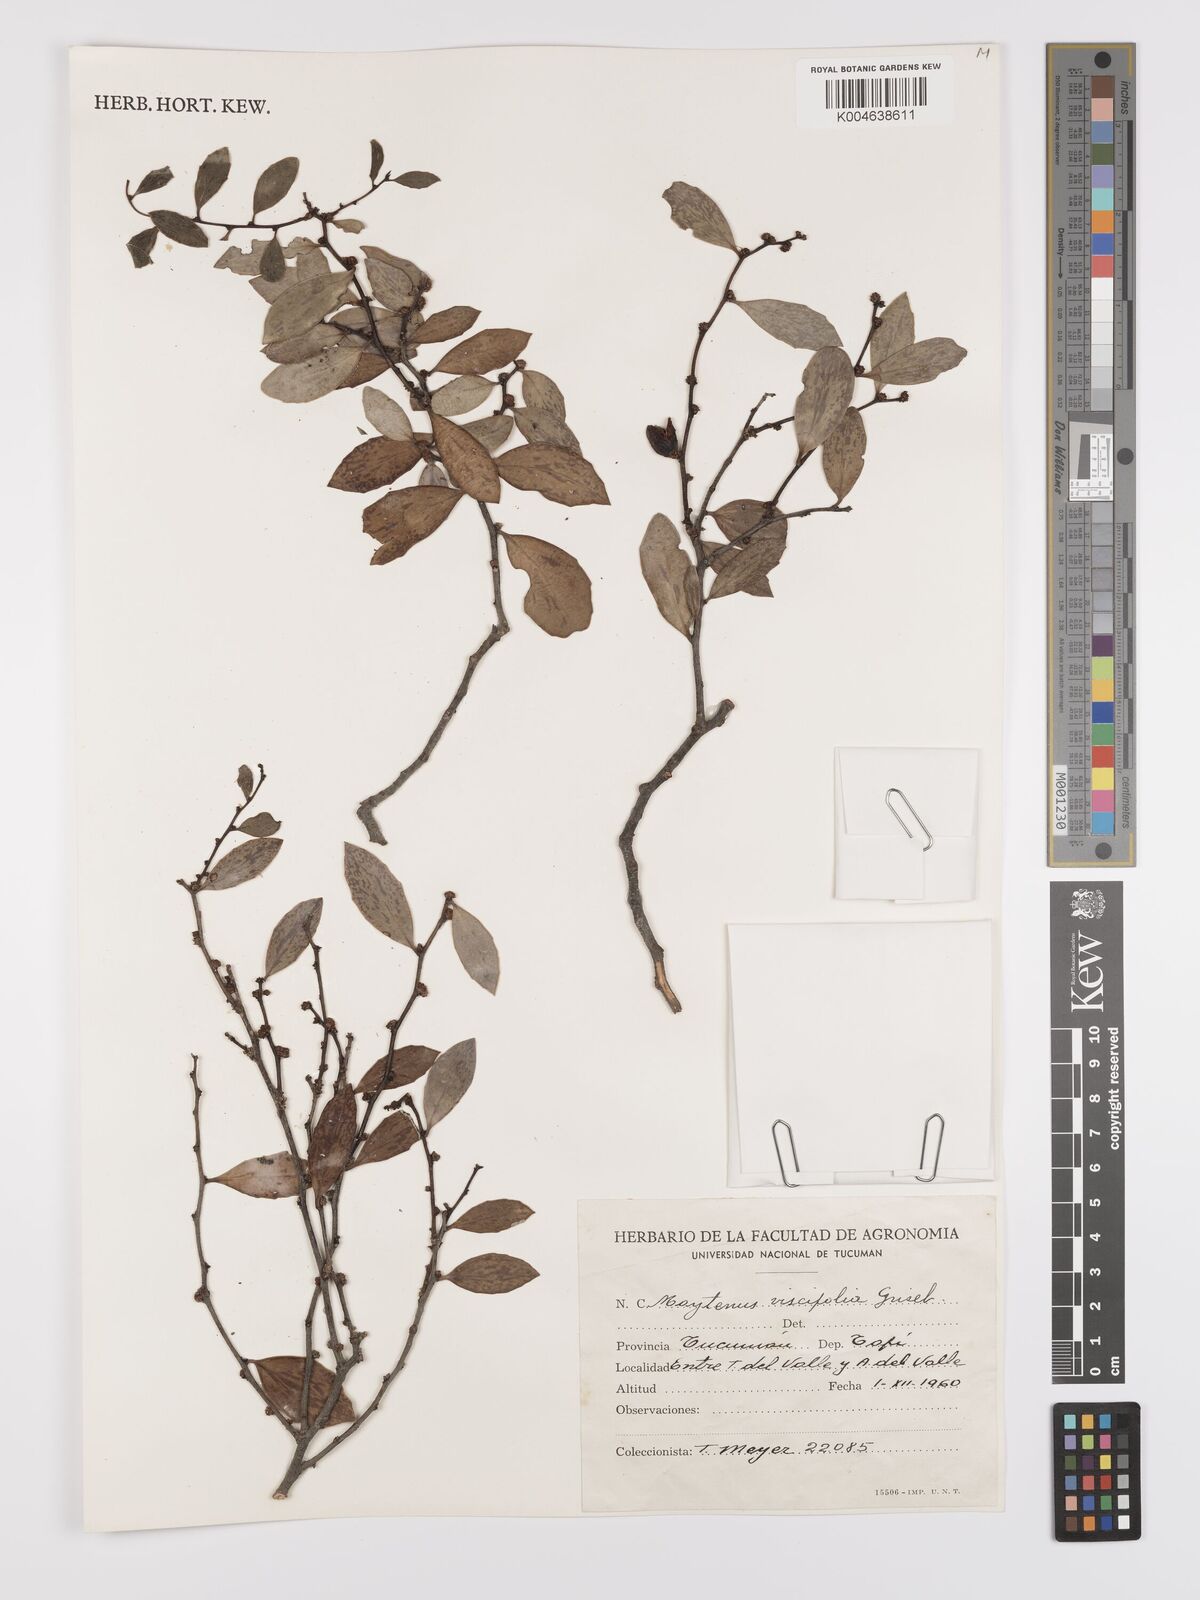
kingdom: Plantae
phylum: Tracheophyta
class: Magnoliopsida
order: Celastrales
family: Celastraceae
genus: Tricerma
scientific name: Tricerma viscifolium
